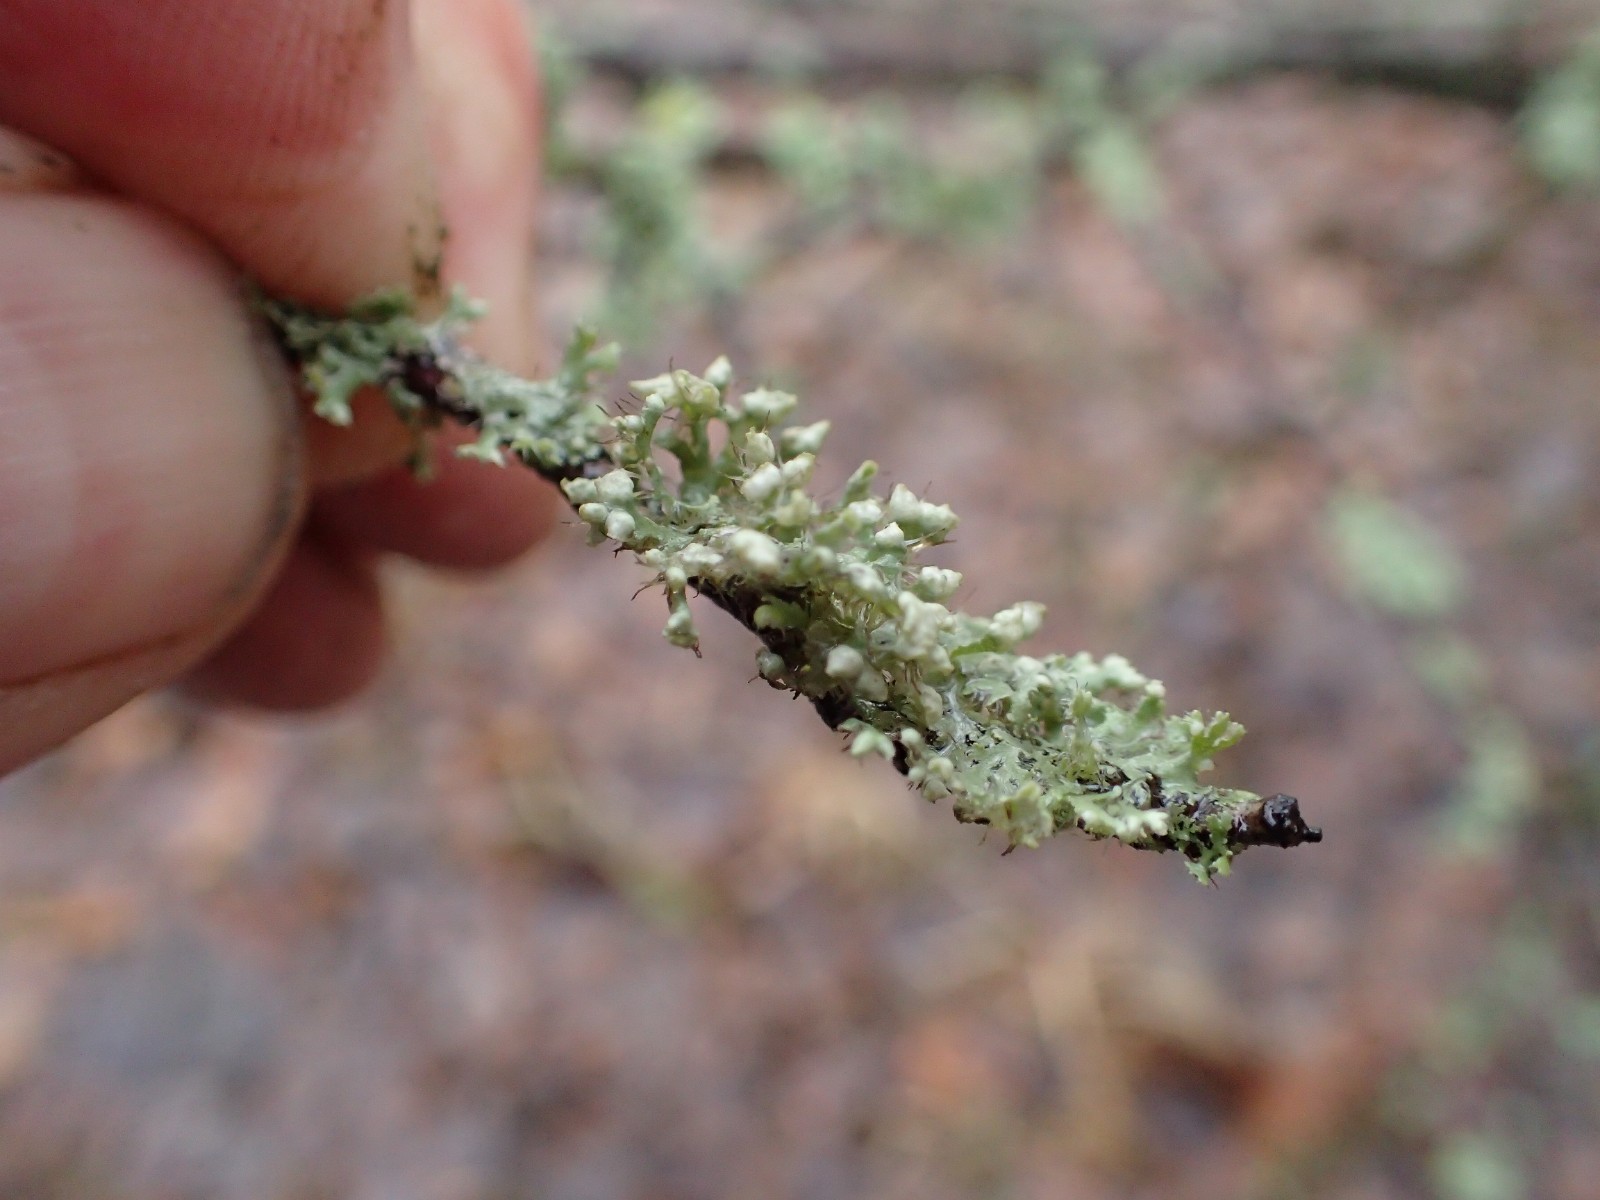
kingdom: Fungi
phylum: Ascomycota
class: Lecanoromycetes
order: Caliciales
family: Physciaceae
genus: Physcia
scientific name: Physcia adscendens
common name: hætte-rosetlav
